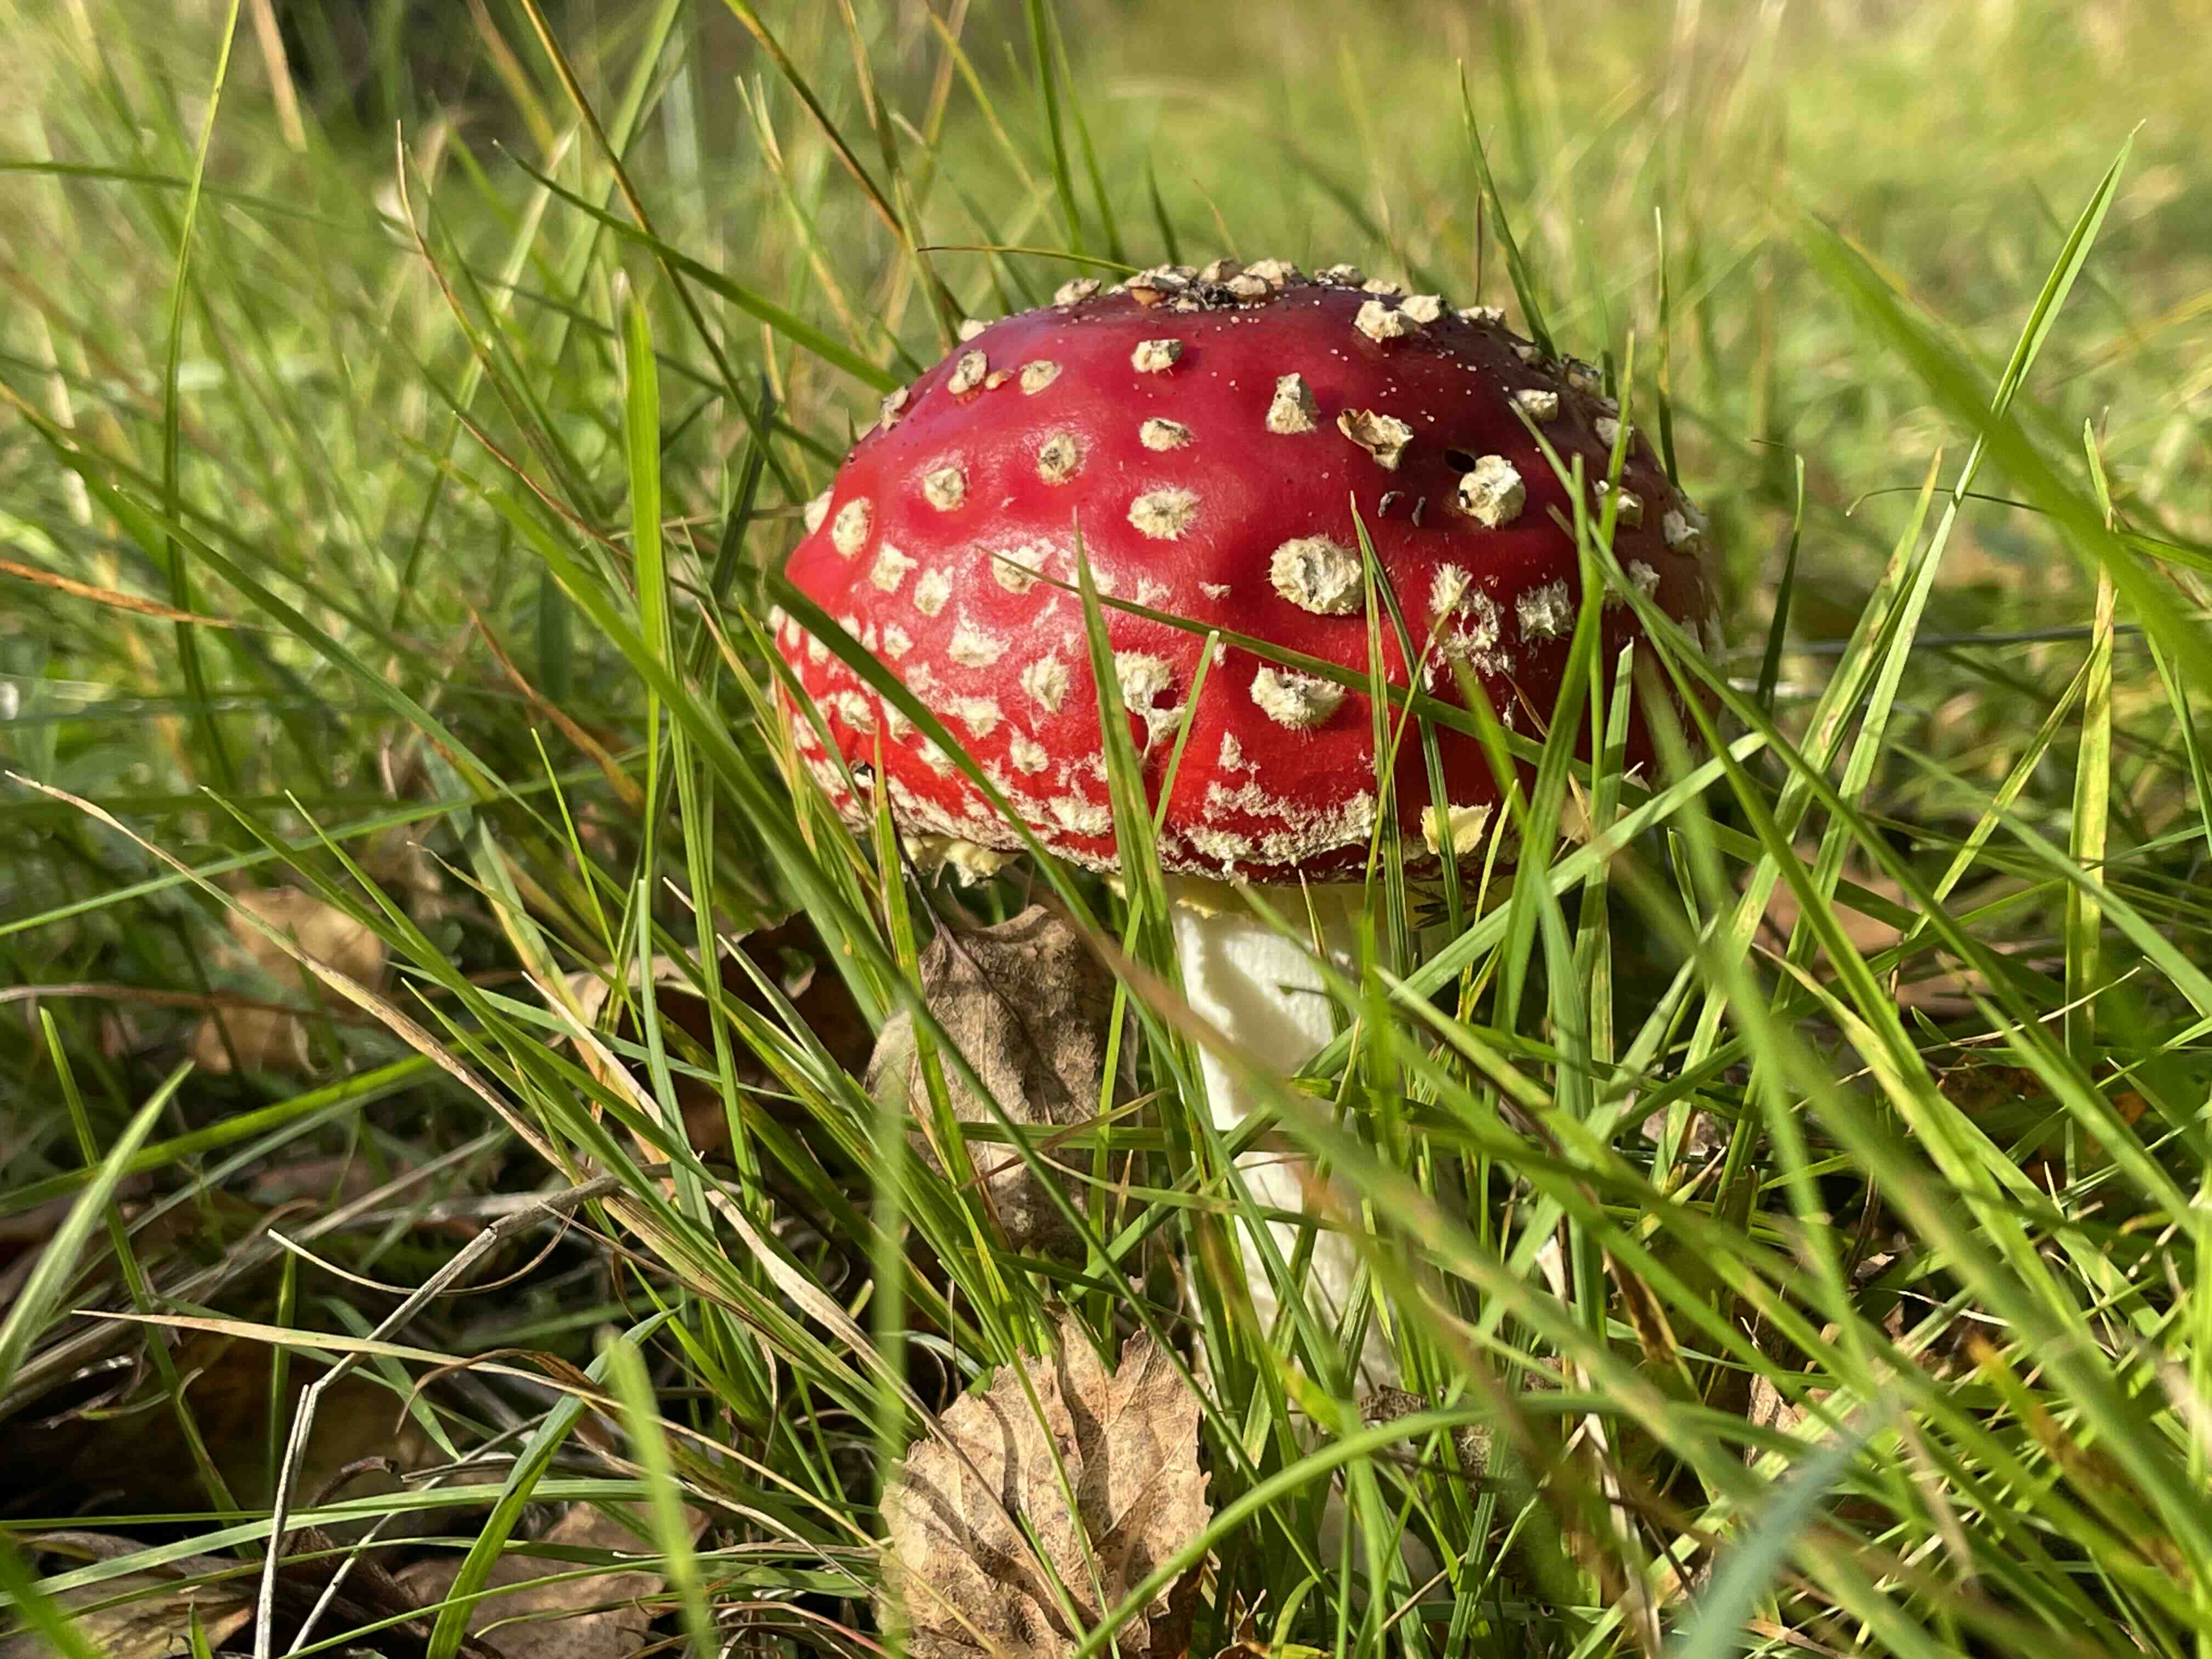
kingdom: Fungi
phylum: Basidiomycota
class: Agaricomycetes
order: Agaricales
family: Amanitaceae
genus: Amanita
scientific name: Amanita muscaria
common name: rød fluesvamp
